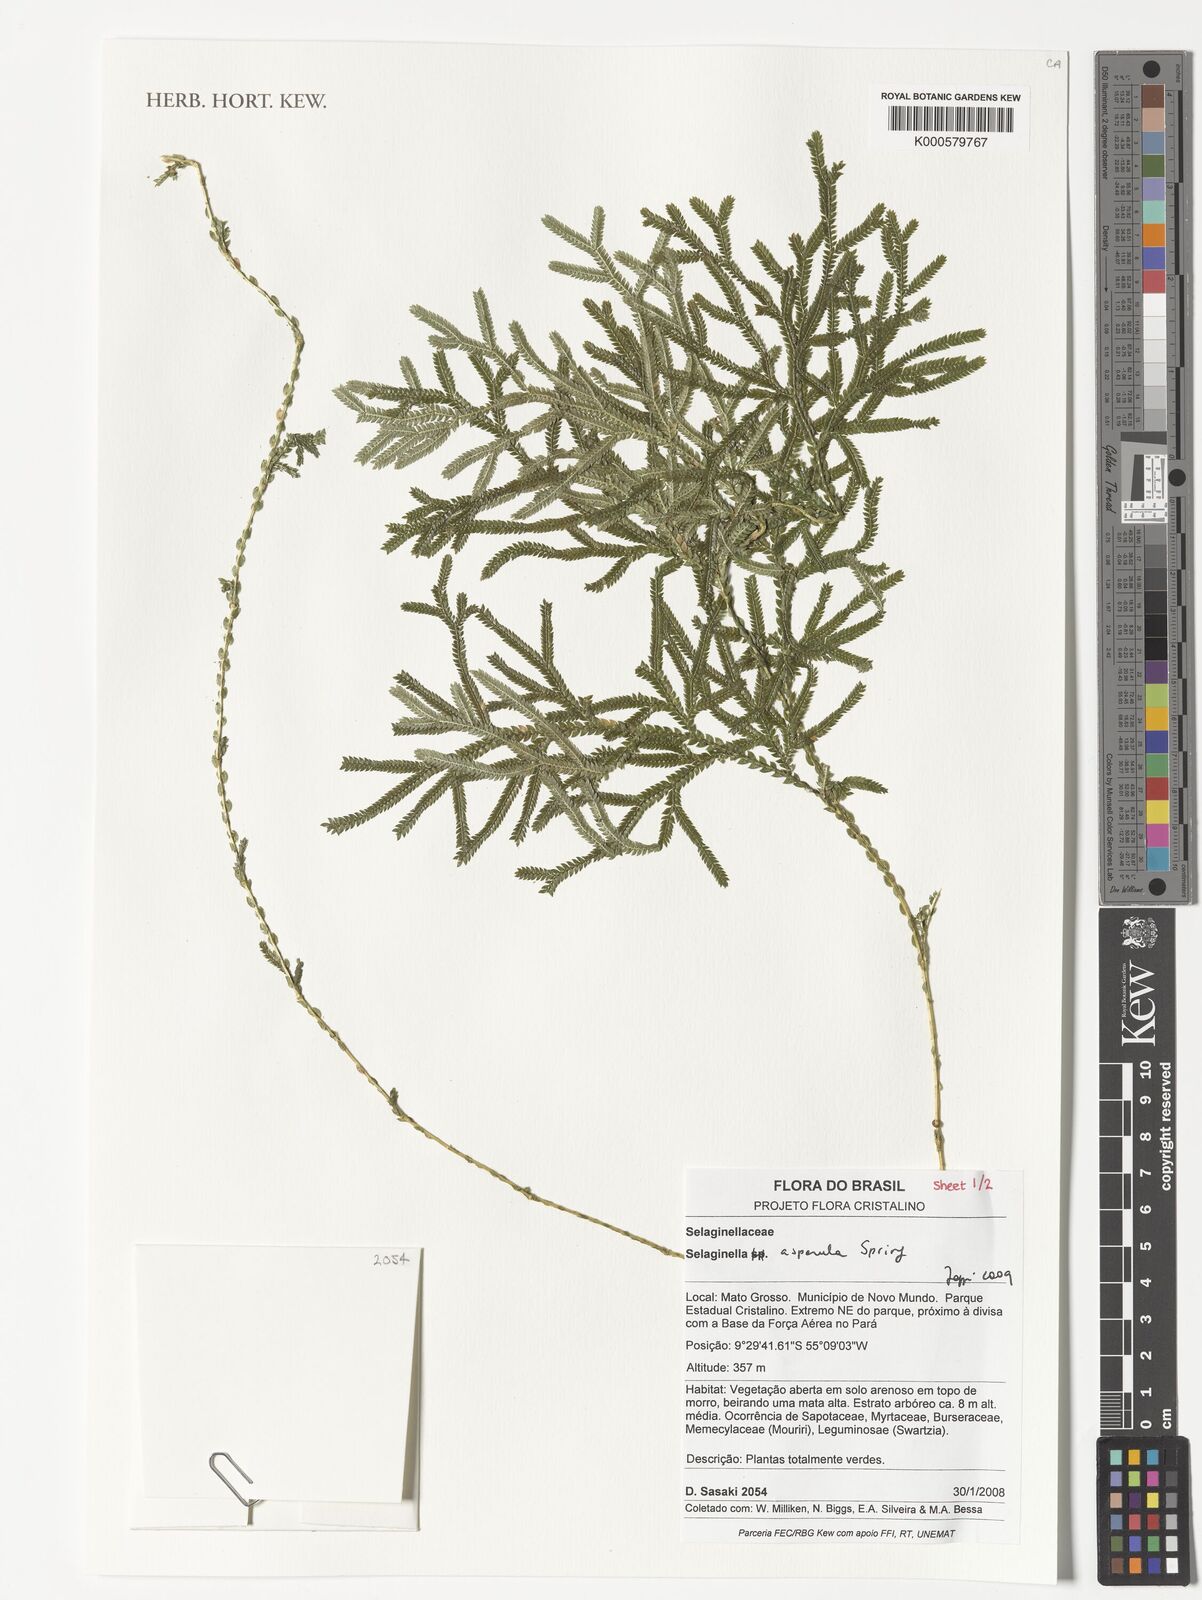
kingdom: Plantae
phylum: Tracheophyta
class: Lycopodiopsida
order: Selaginellales
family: Selaginellaceae
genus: Selaginella
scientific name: Selaginella asperula
